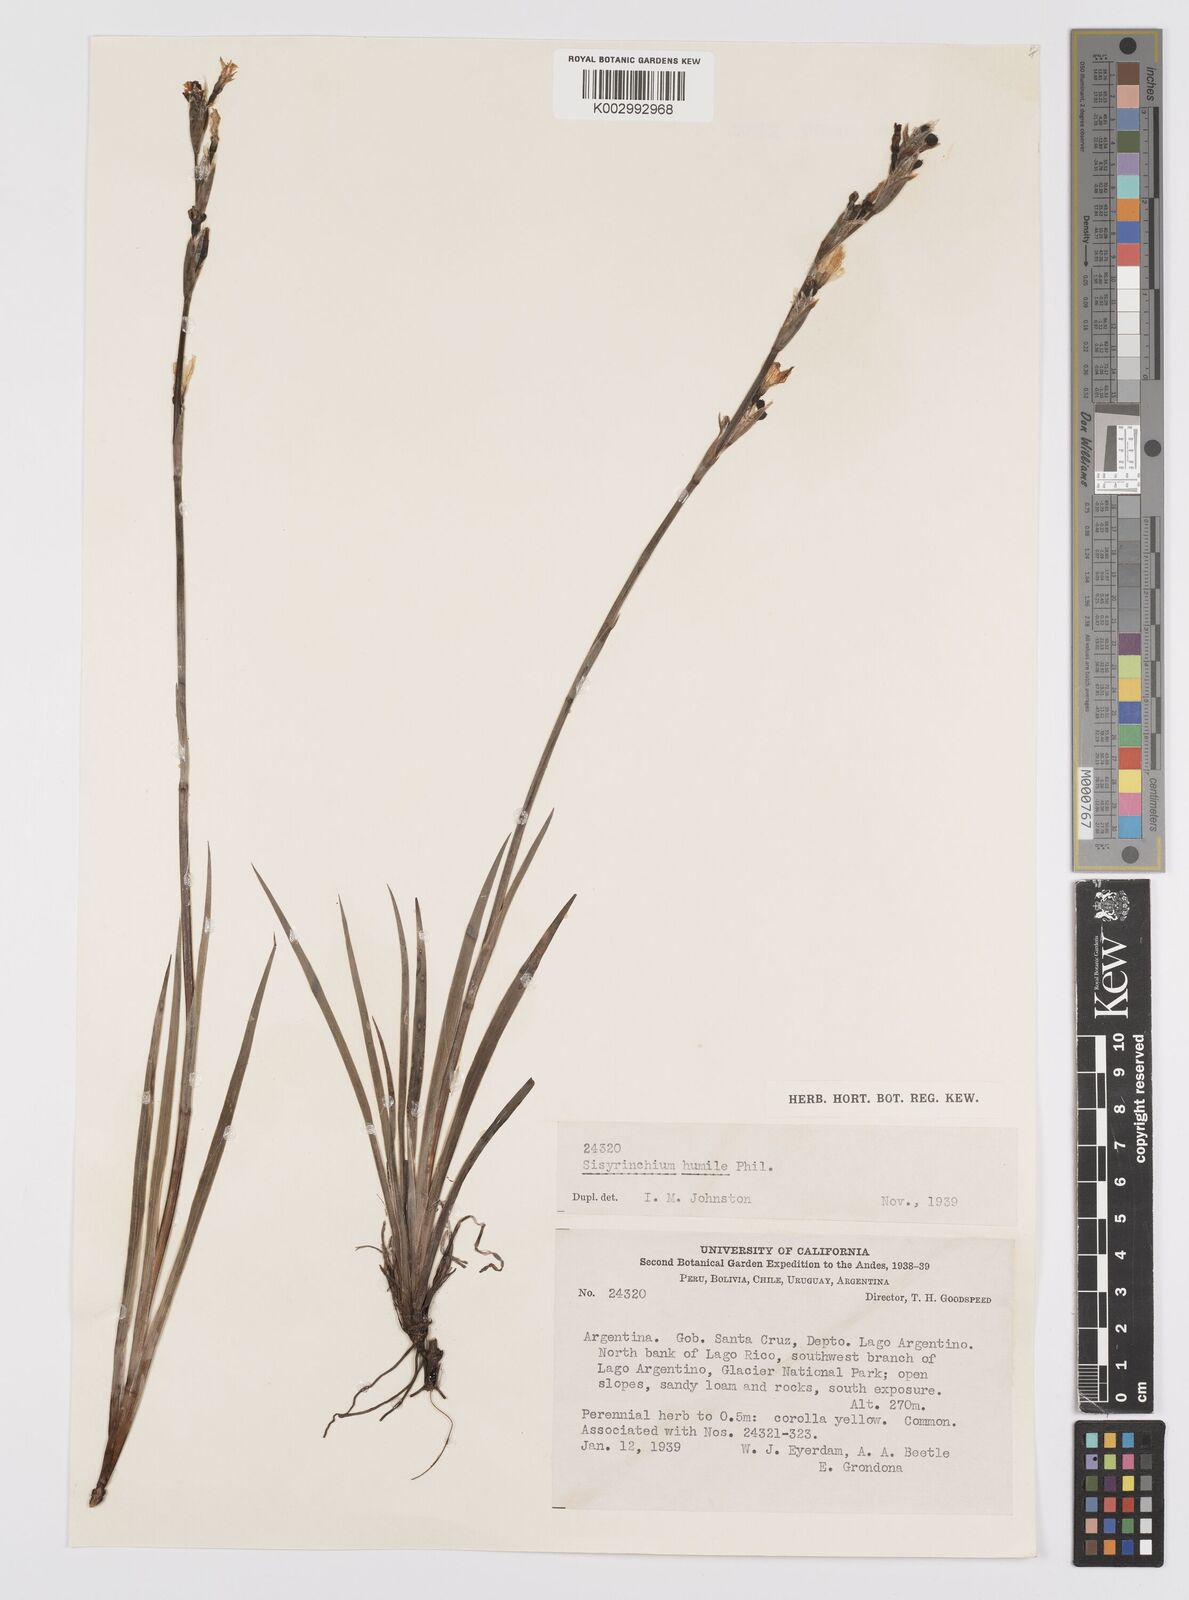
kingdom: Plantae
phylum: Tracheophyta
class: Liliopsida
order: Asparagales
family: Iridaceae
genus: Sisyrinchium
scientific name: Sisyrinchium arenarium
